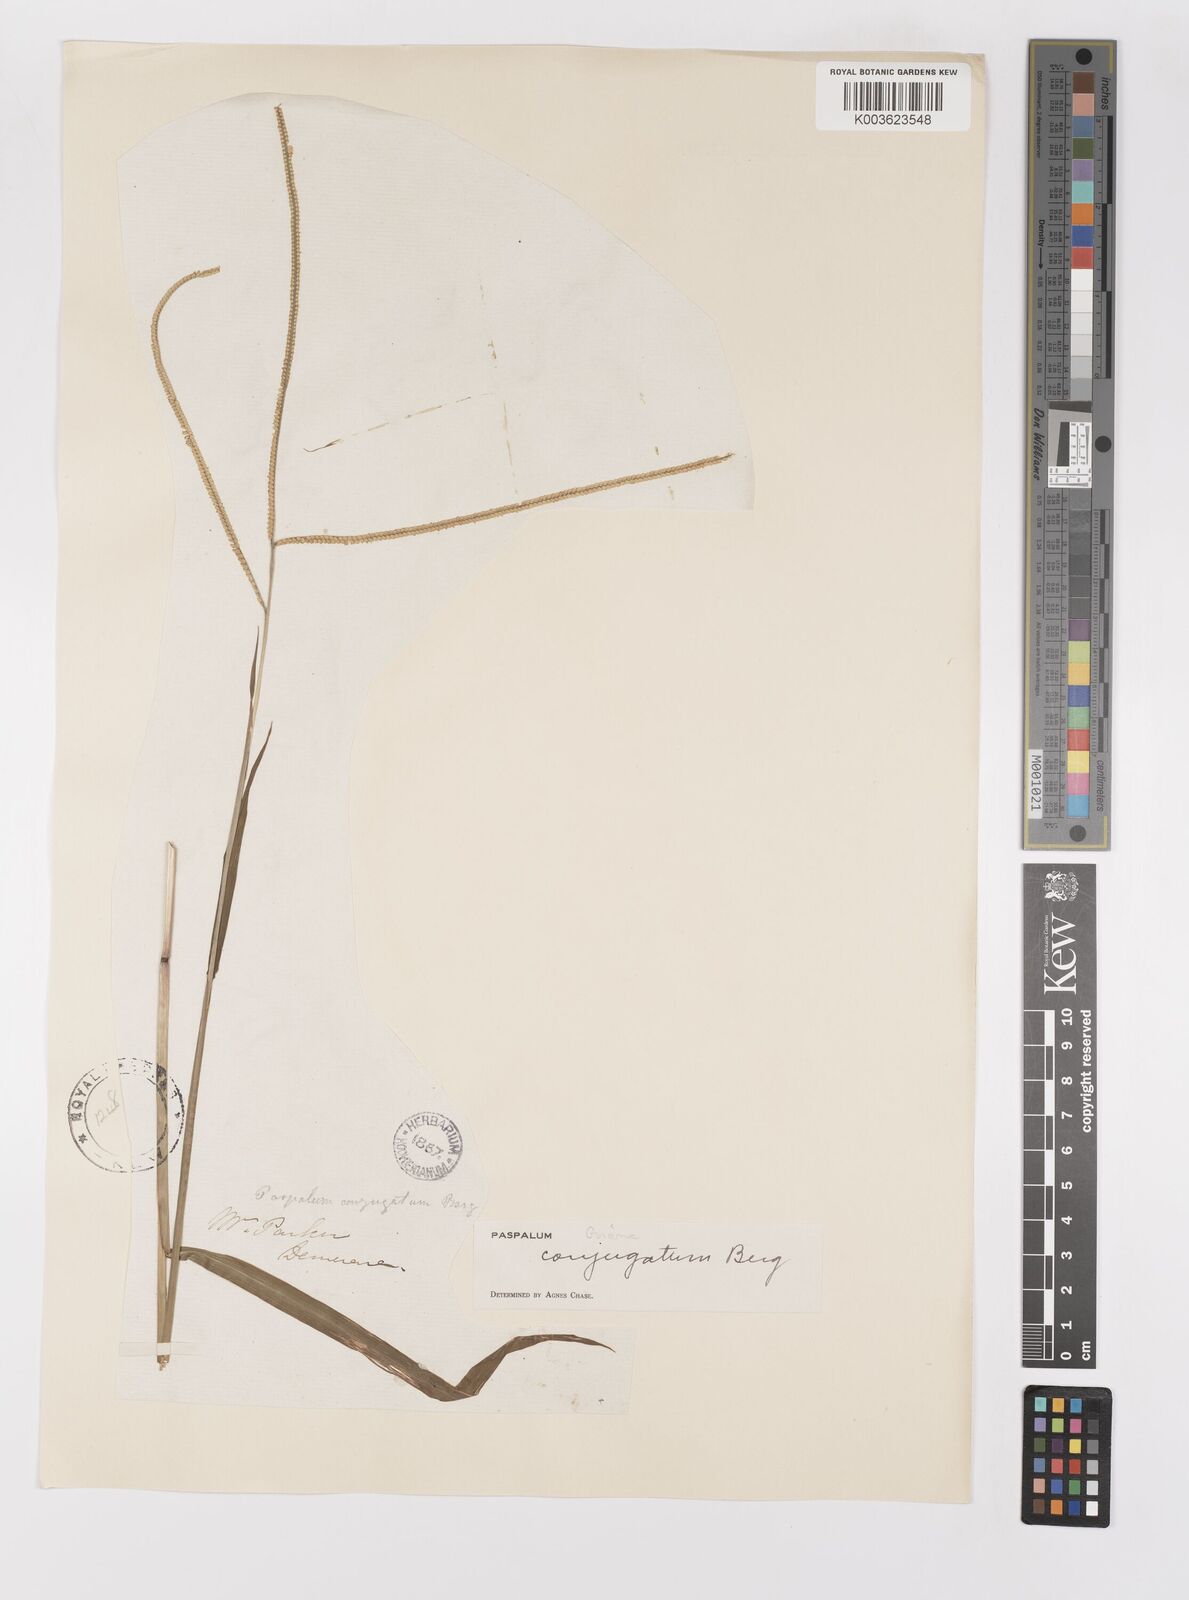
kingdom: Plantae
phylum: Tracheophyta
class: Liliopsida
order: Poales
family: Poaceae
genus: Paspalum
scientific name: Paspalum conjugatum
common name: Hilograss
